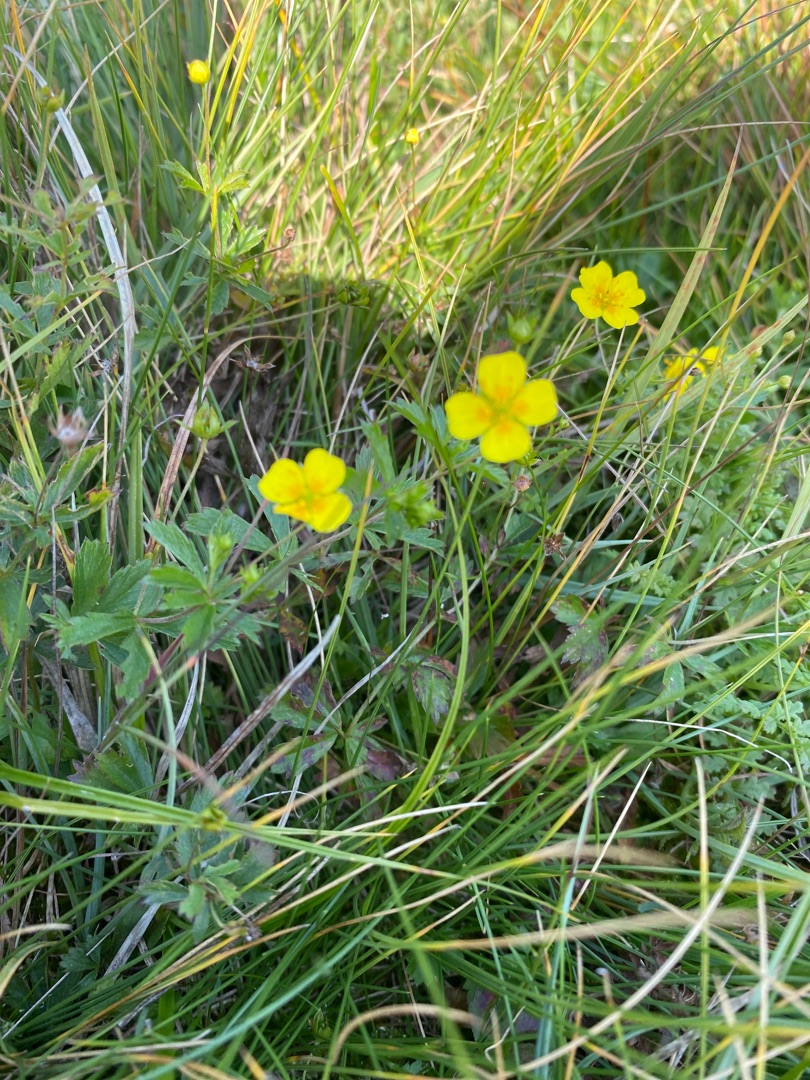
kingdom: Plantae
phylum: Tracheophyta
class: Magnoliopsida
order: Rosales
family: Rosaceae
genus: Potentilla
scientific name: Potentilla erecta
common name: Tormentil
